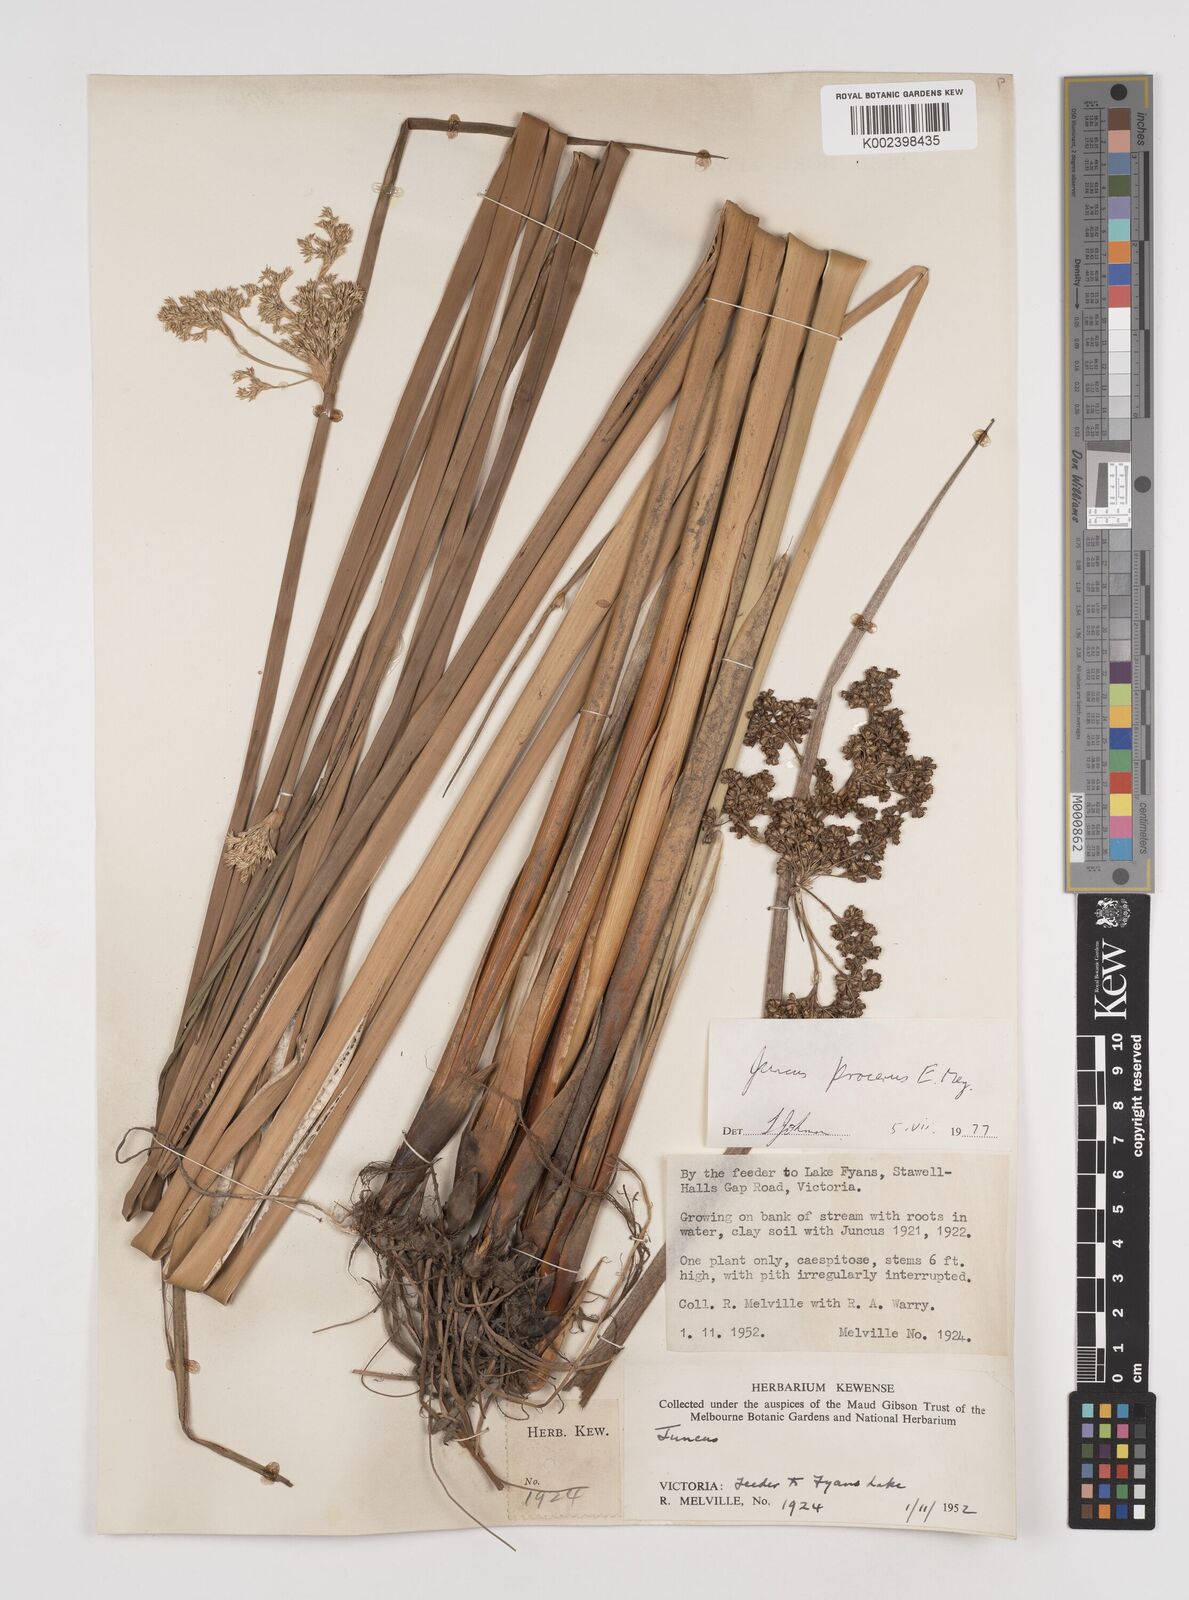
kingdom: Plantae
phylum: Tracheophyta
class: Liliopsida
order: Poales
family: Juncaceae
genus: Juncus
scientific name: Juncus procerus
